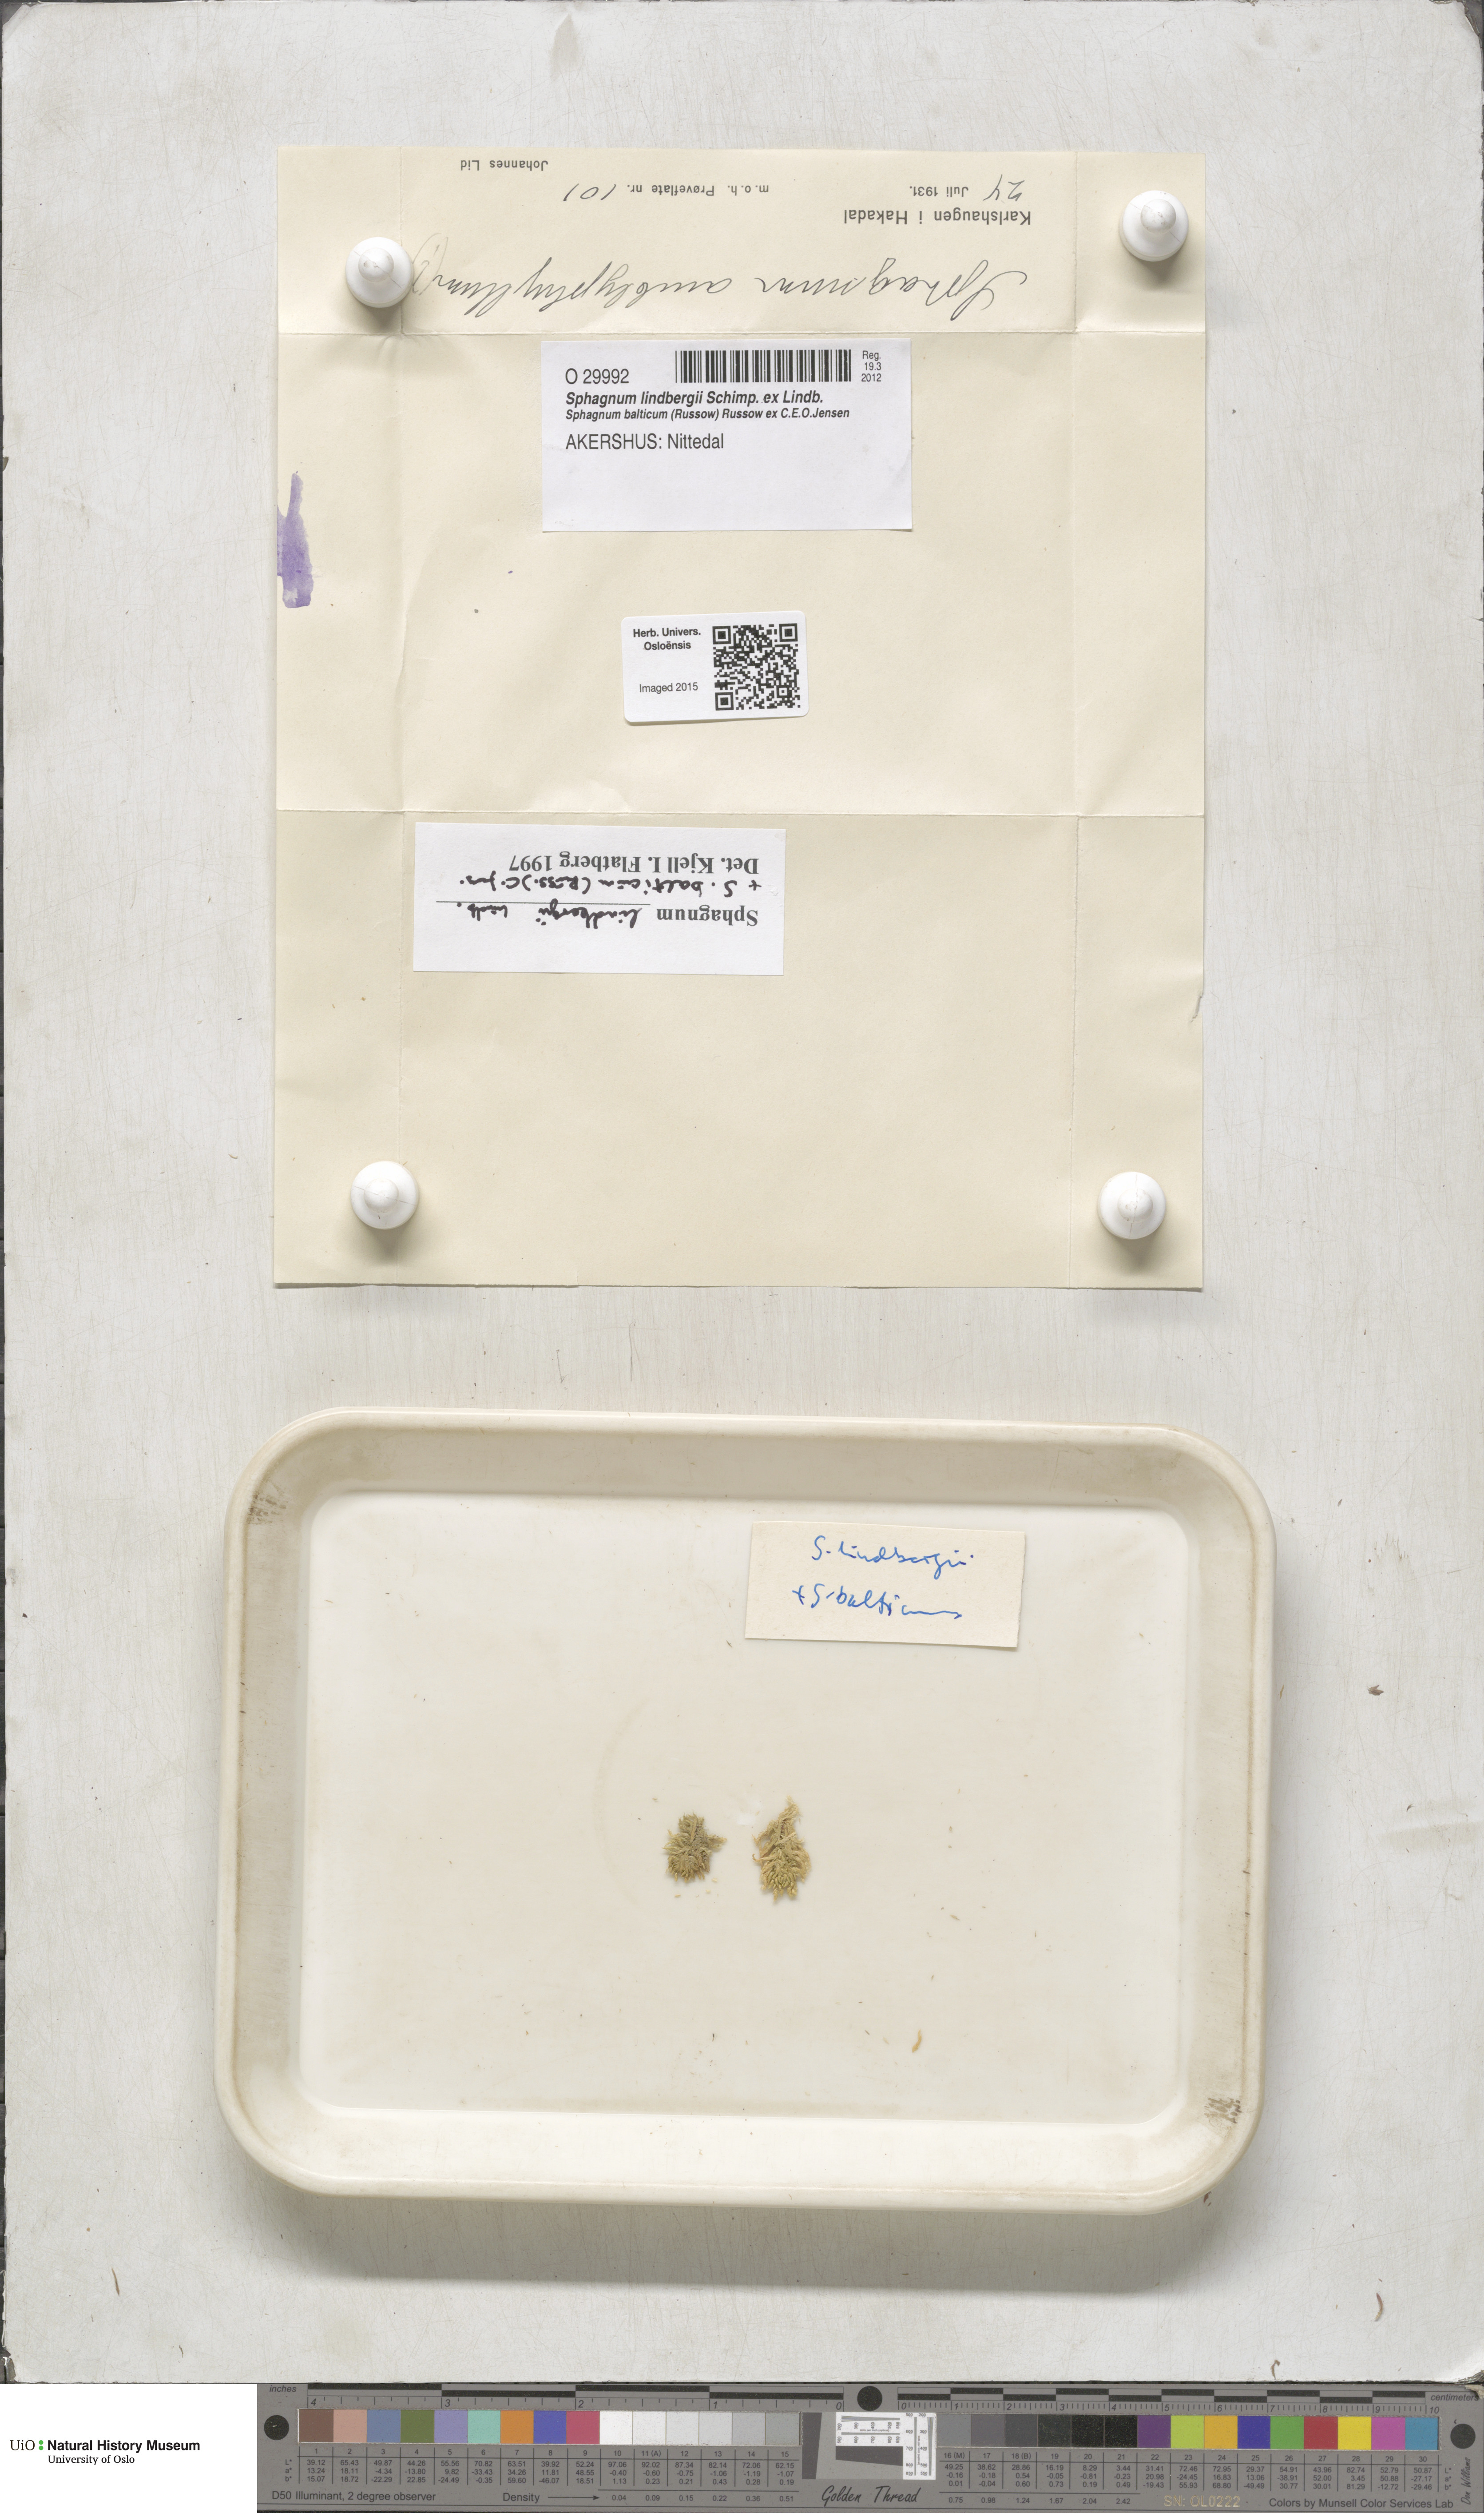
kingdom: Plantae
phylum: Bryophyta
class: Sphagnopsida
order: Sphagnales
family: Sphagnaceae
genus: Sphagnum
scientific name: Sphagnum lindbergii
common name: Lindberg's peat moss
